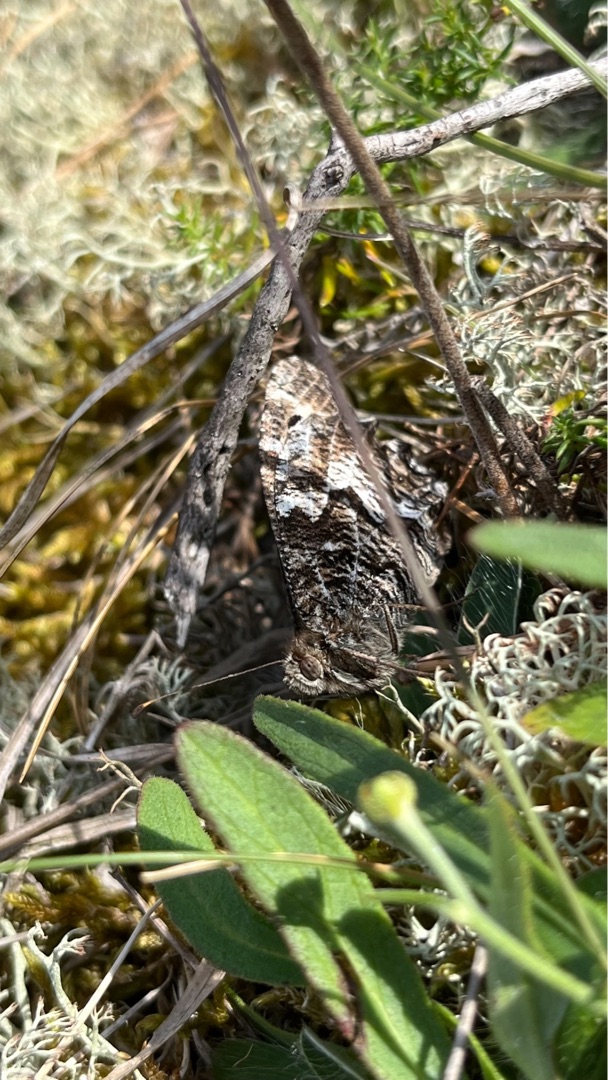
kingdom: Animalia
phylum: Arthropoda
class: Insecta
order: Lepidoptera
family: Nymphalidae
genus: Hipparchia
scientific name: Hipparchia semele
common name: Sandrandøje
